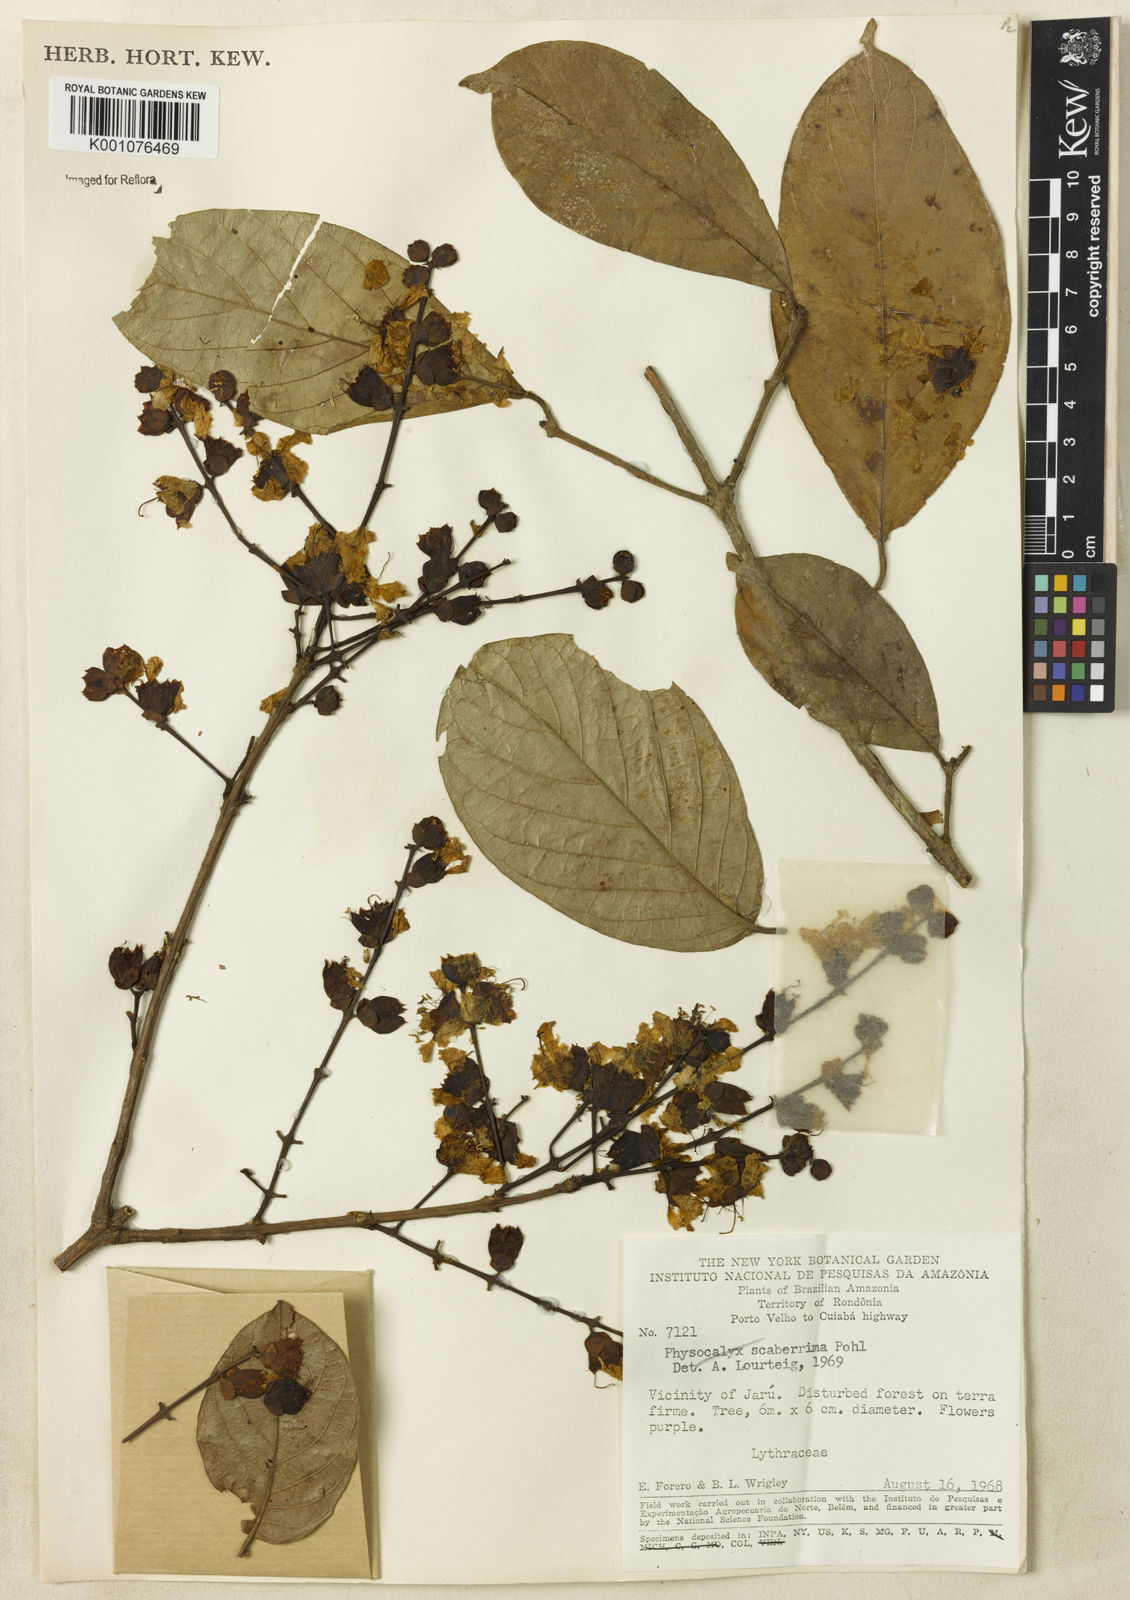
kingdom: Plantae
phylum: Tracheophyta
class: Magnoliopsida
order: Myrtales
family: Lythraceae
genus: Physocalymma
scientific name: Physocalymma scaberrimum
